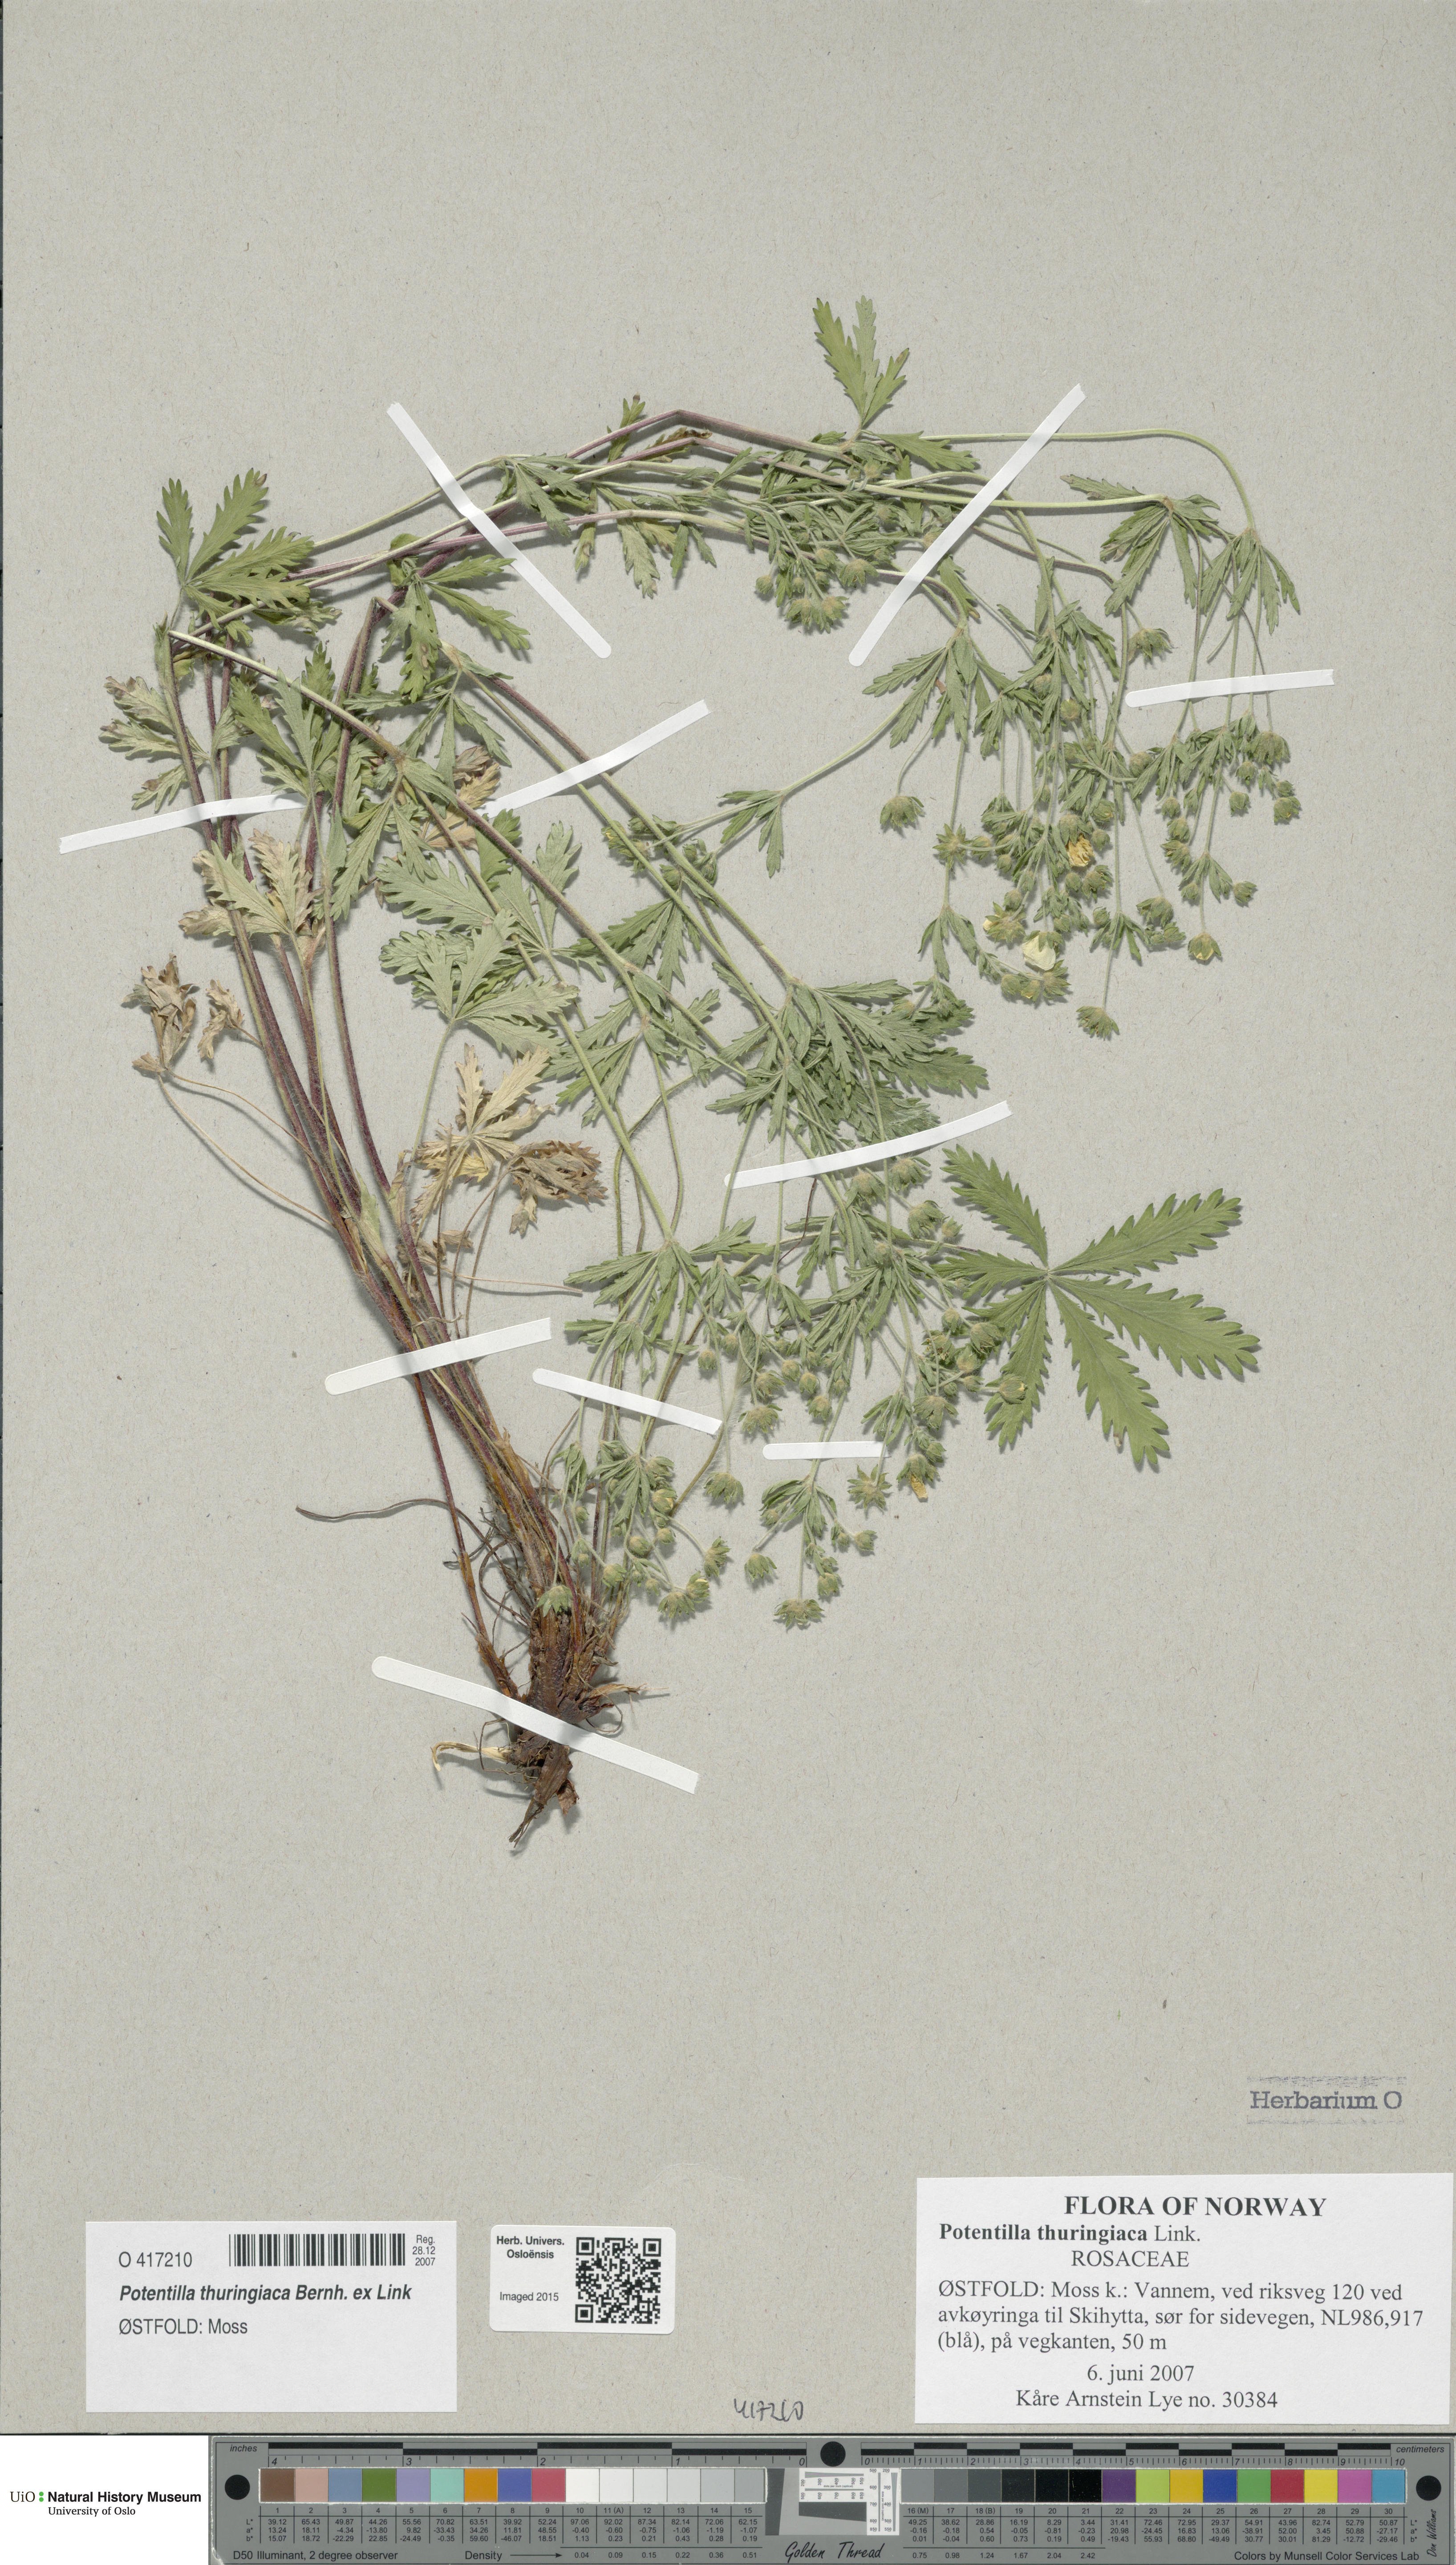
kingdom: Plantae
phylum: Tracheophyta
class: Magnoliopsida
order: Rosales
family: Rosaceae
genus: Potentilla
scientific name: Potentilla thuringiaca
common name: European cinquefoil
